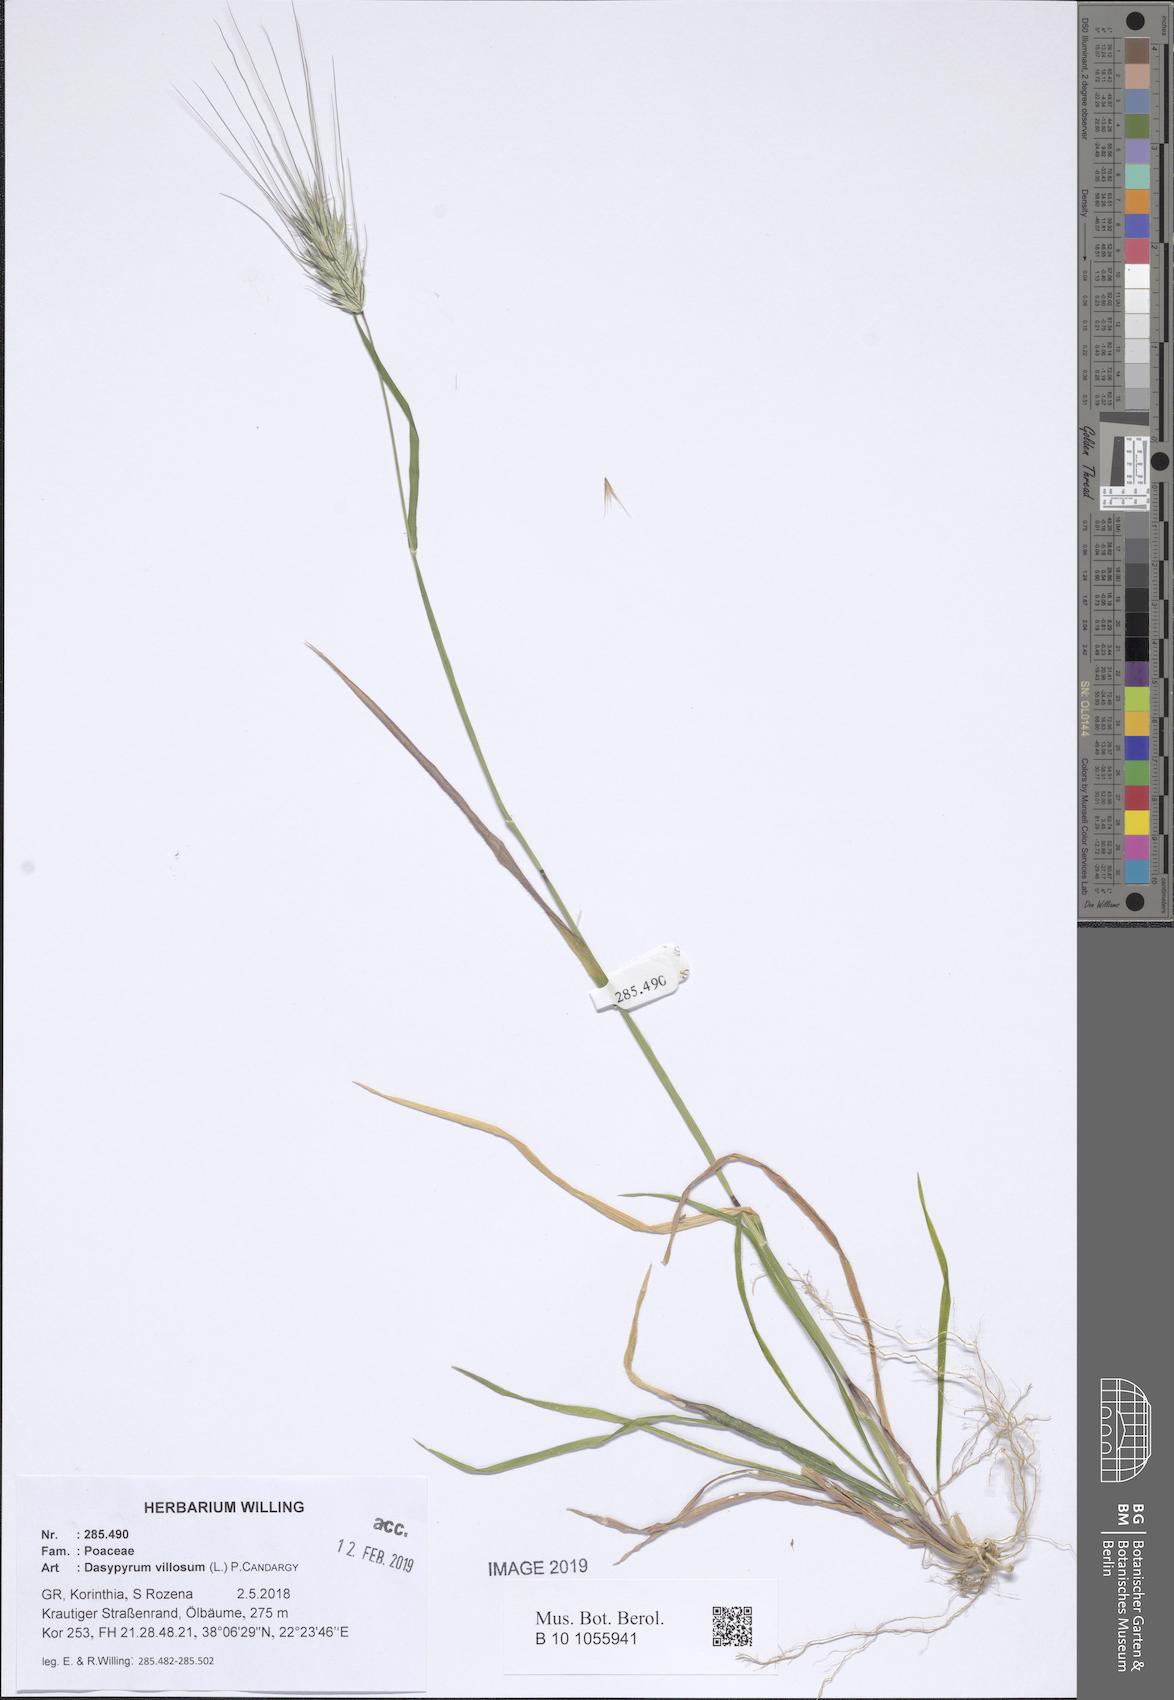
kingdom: Plantae
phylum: Tracheophyta
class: Liliopsida
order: Poales
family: Poaceae
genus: Dasypyrum
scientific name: Dasypyrum villosum
